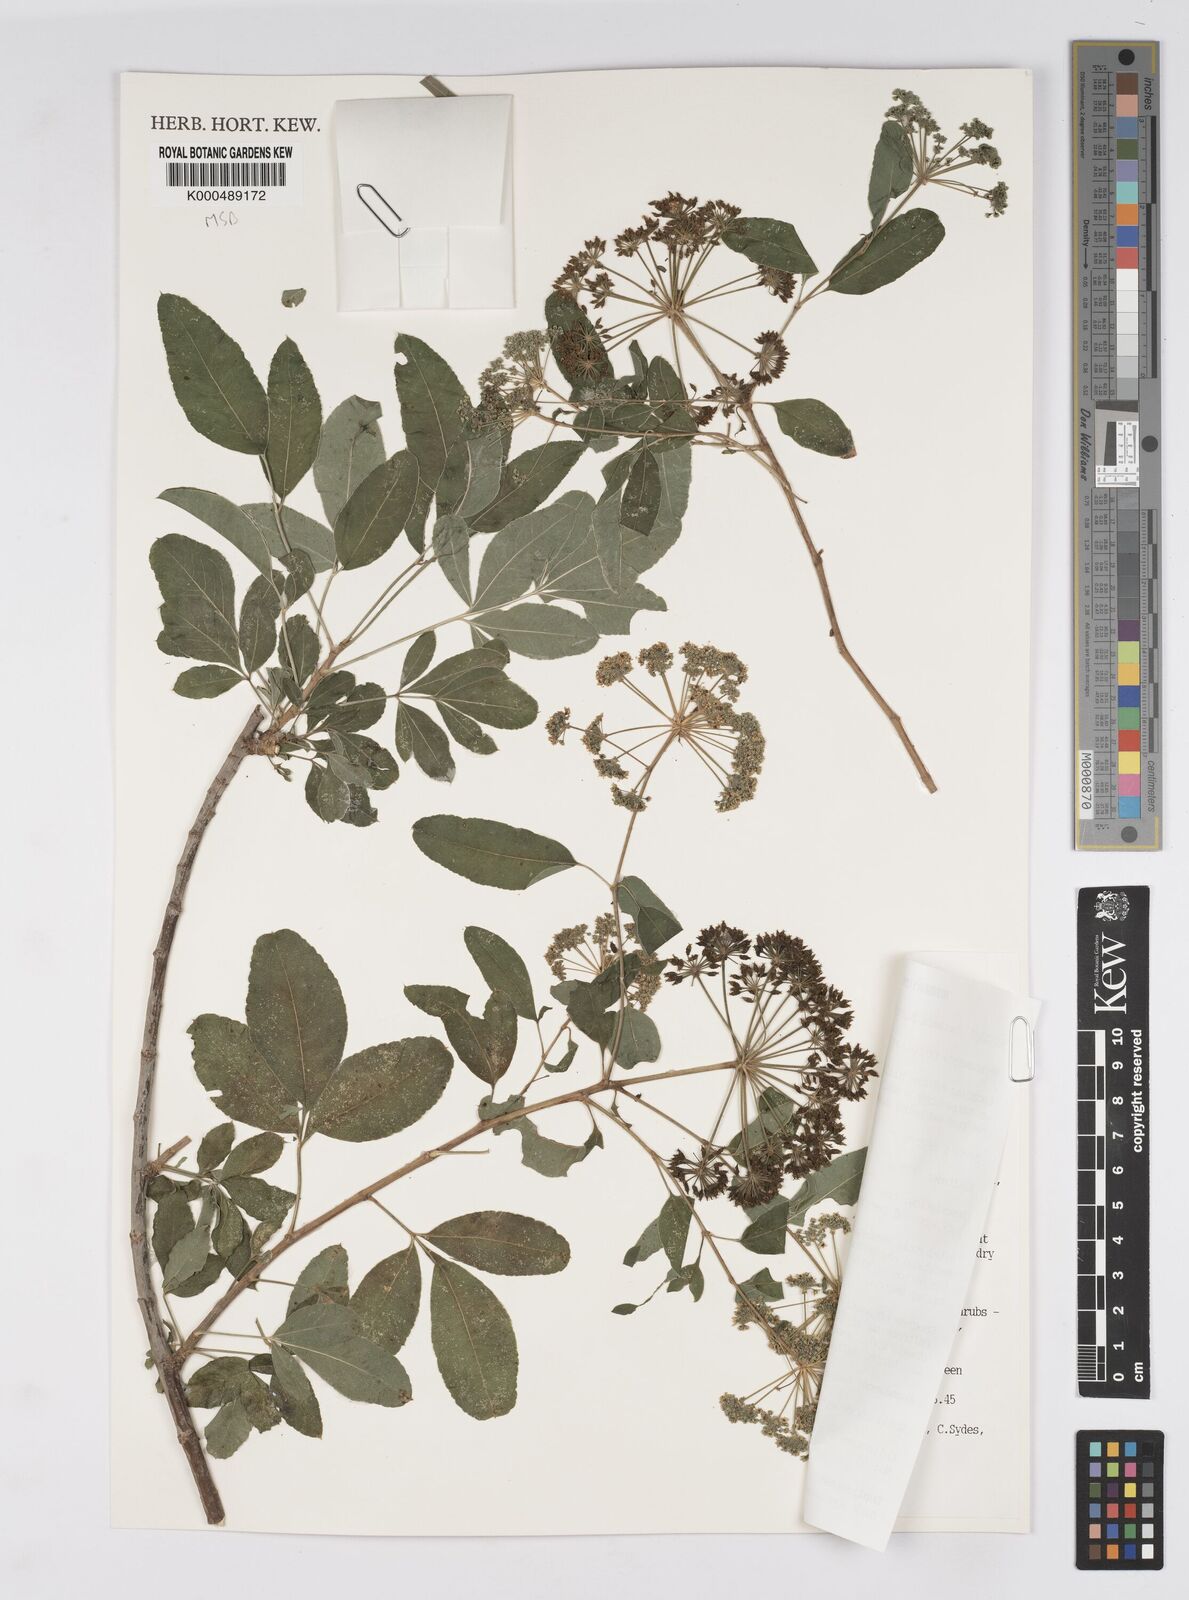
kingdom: Plantae
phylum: Tracheophyta
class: Magnoliopsida
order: Apiales
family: Apiaceae
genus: Heteromorpha
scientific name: Heteromorpha arborescens
